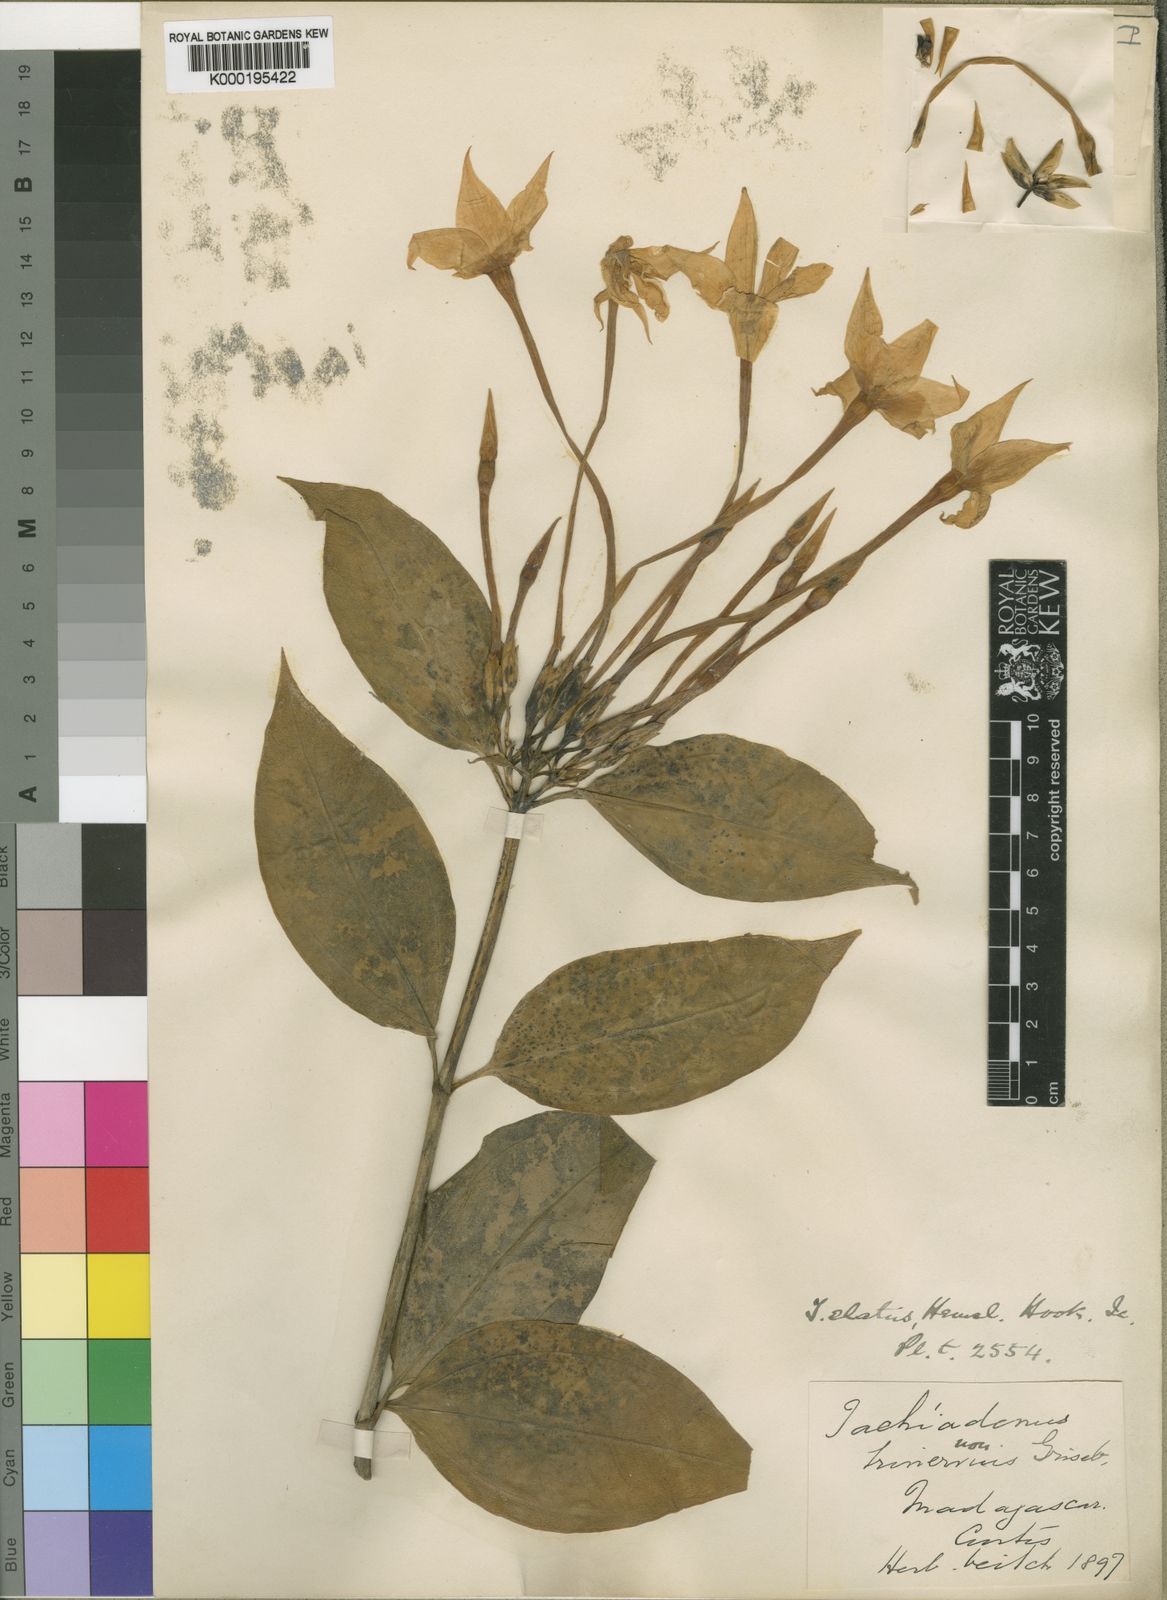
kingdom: Plantae
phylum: Tracheophyta
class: Magnoliopsida
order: Gentianales
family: Gentianaceae
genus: Tachiadenus
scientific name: Tachiadenus tubiflorus
